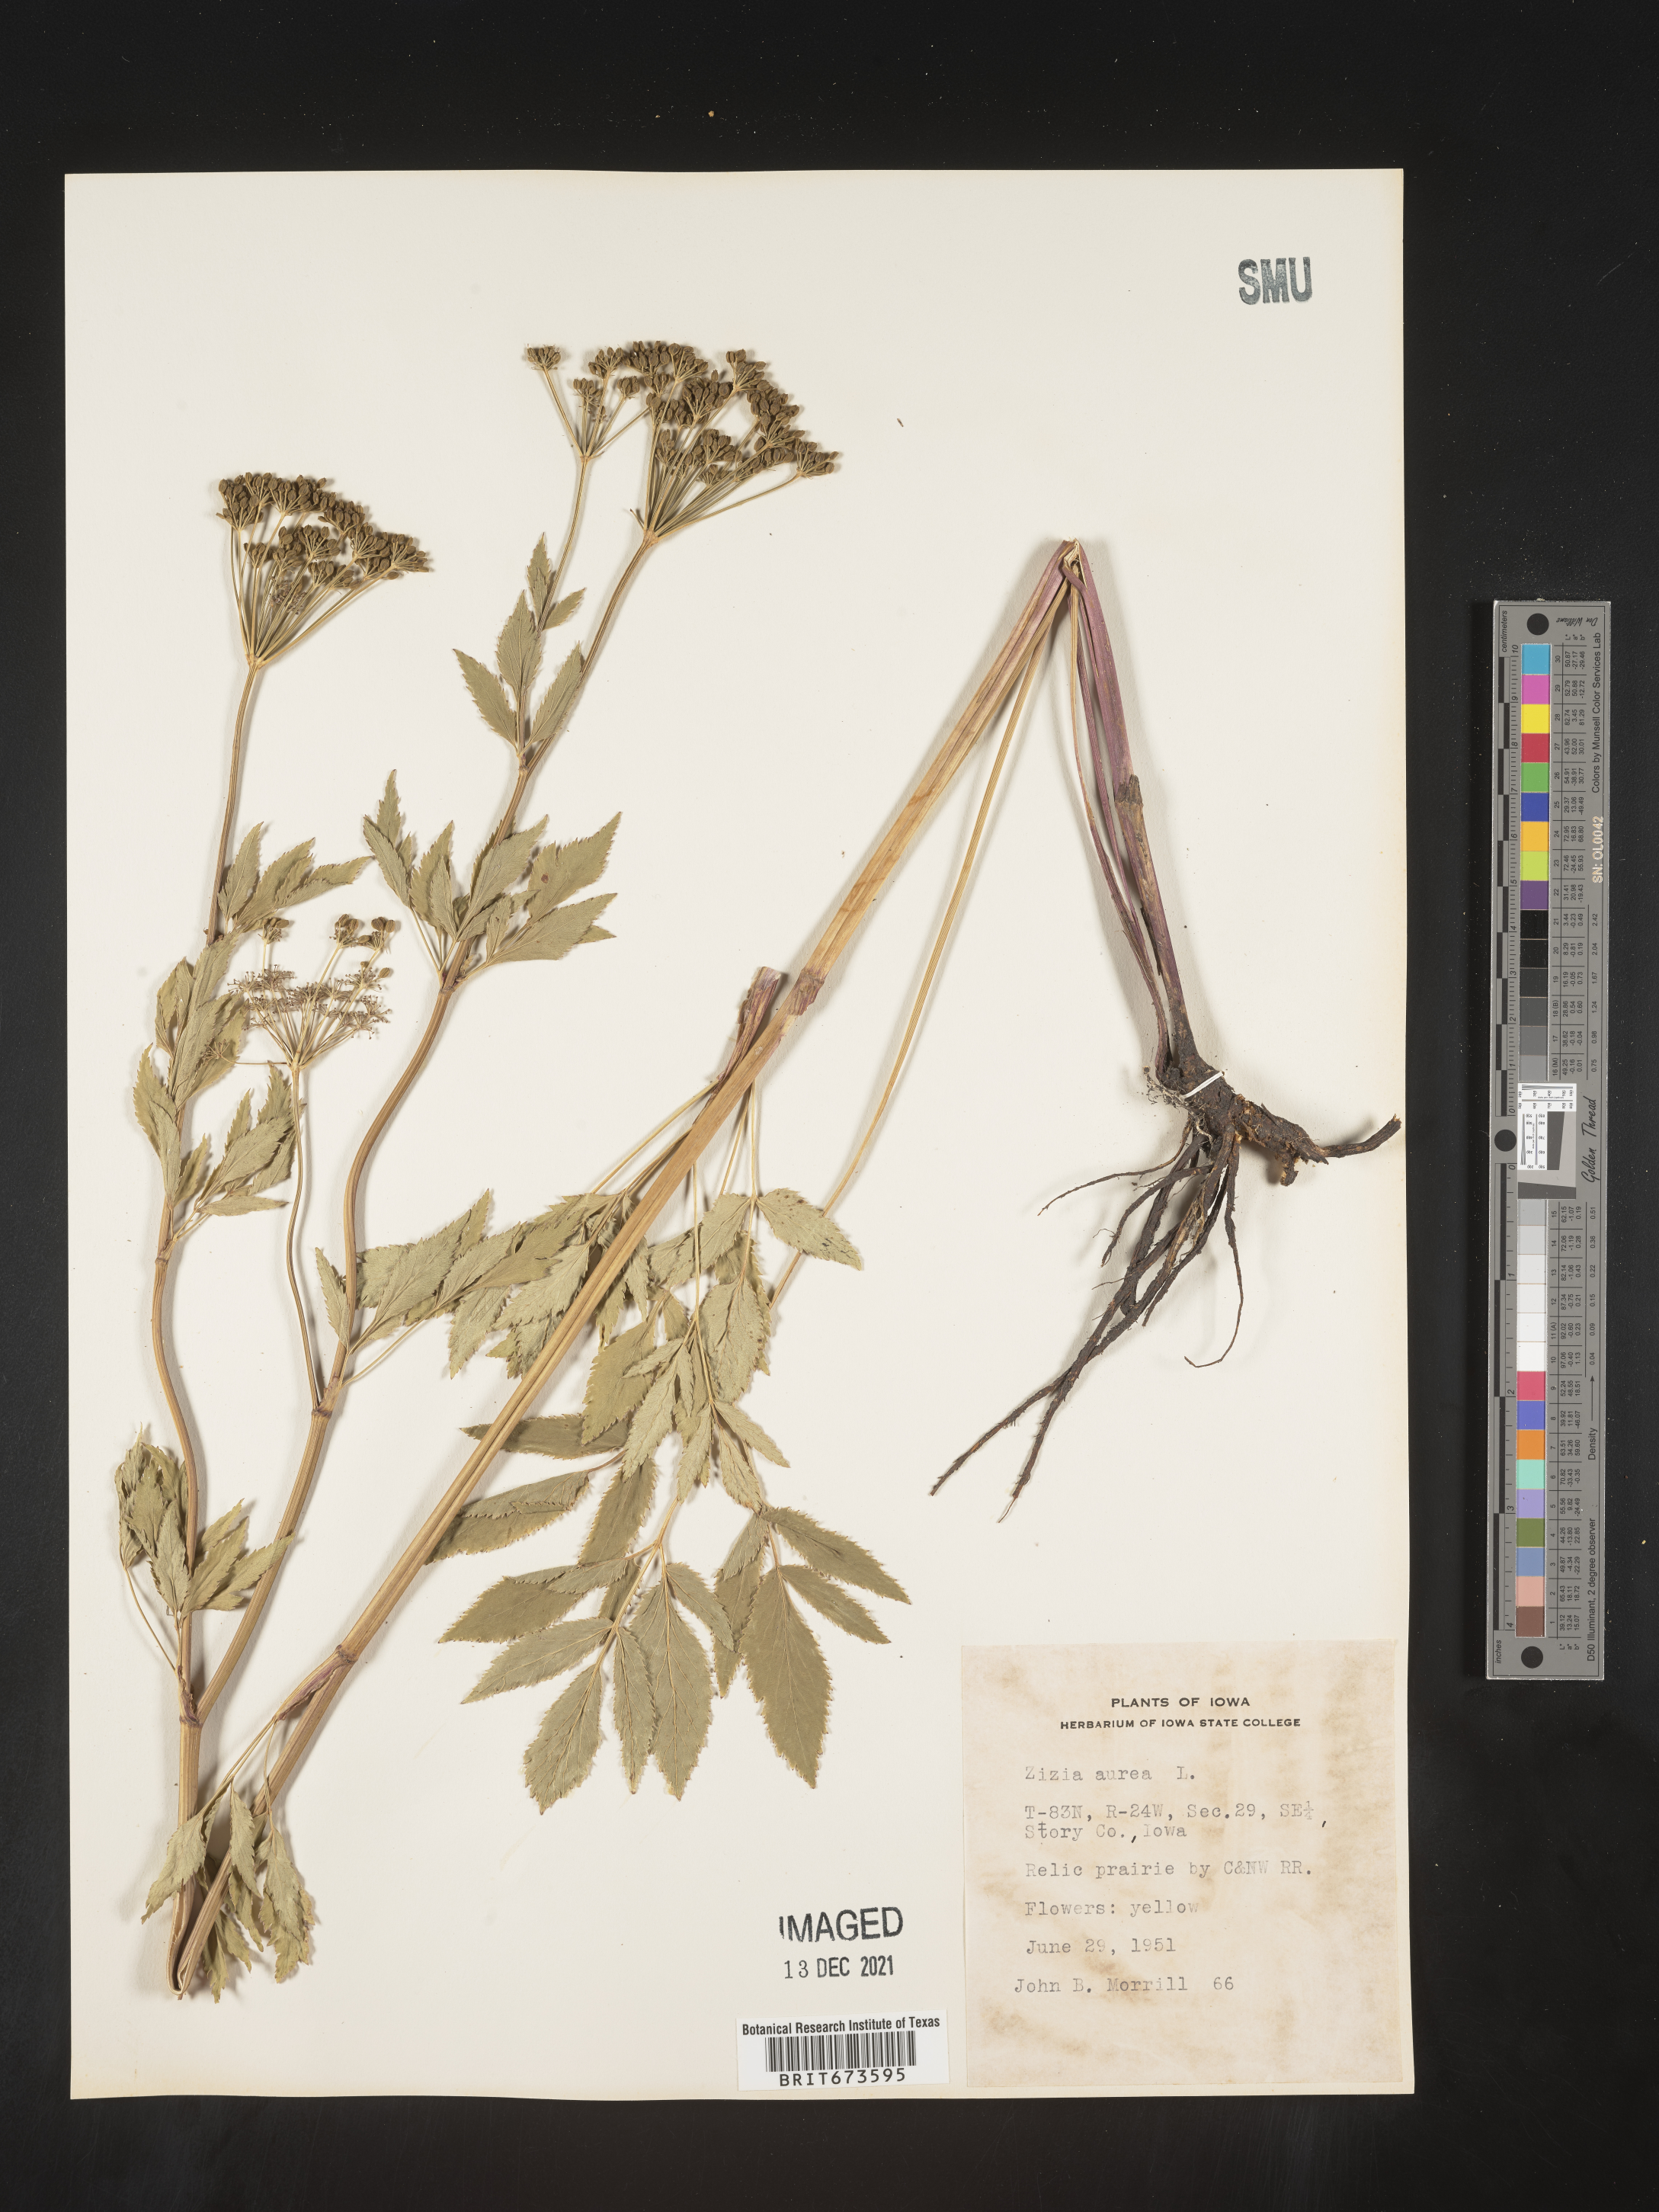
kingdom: Plantae
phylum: Tracheophyta
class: Magnoliopsida
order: Apiales
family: Apiaceae
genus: Zizia
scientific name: Zizia aurea
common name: Golden alexanders
